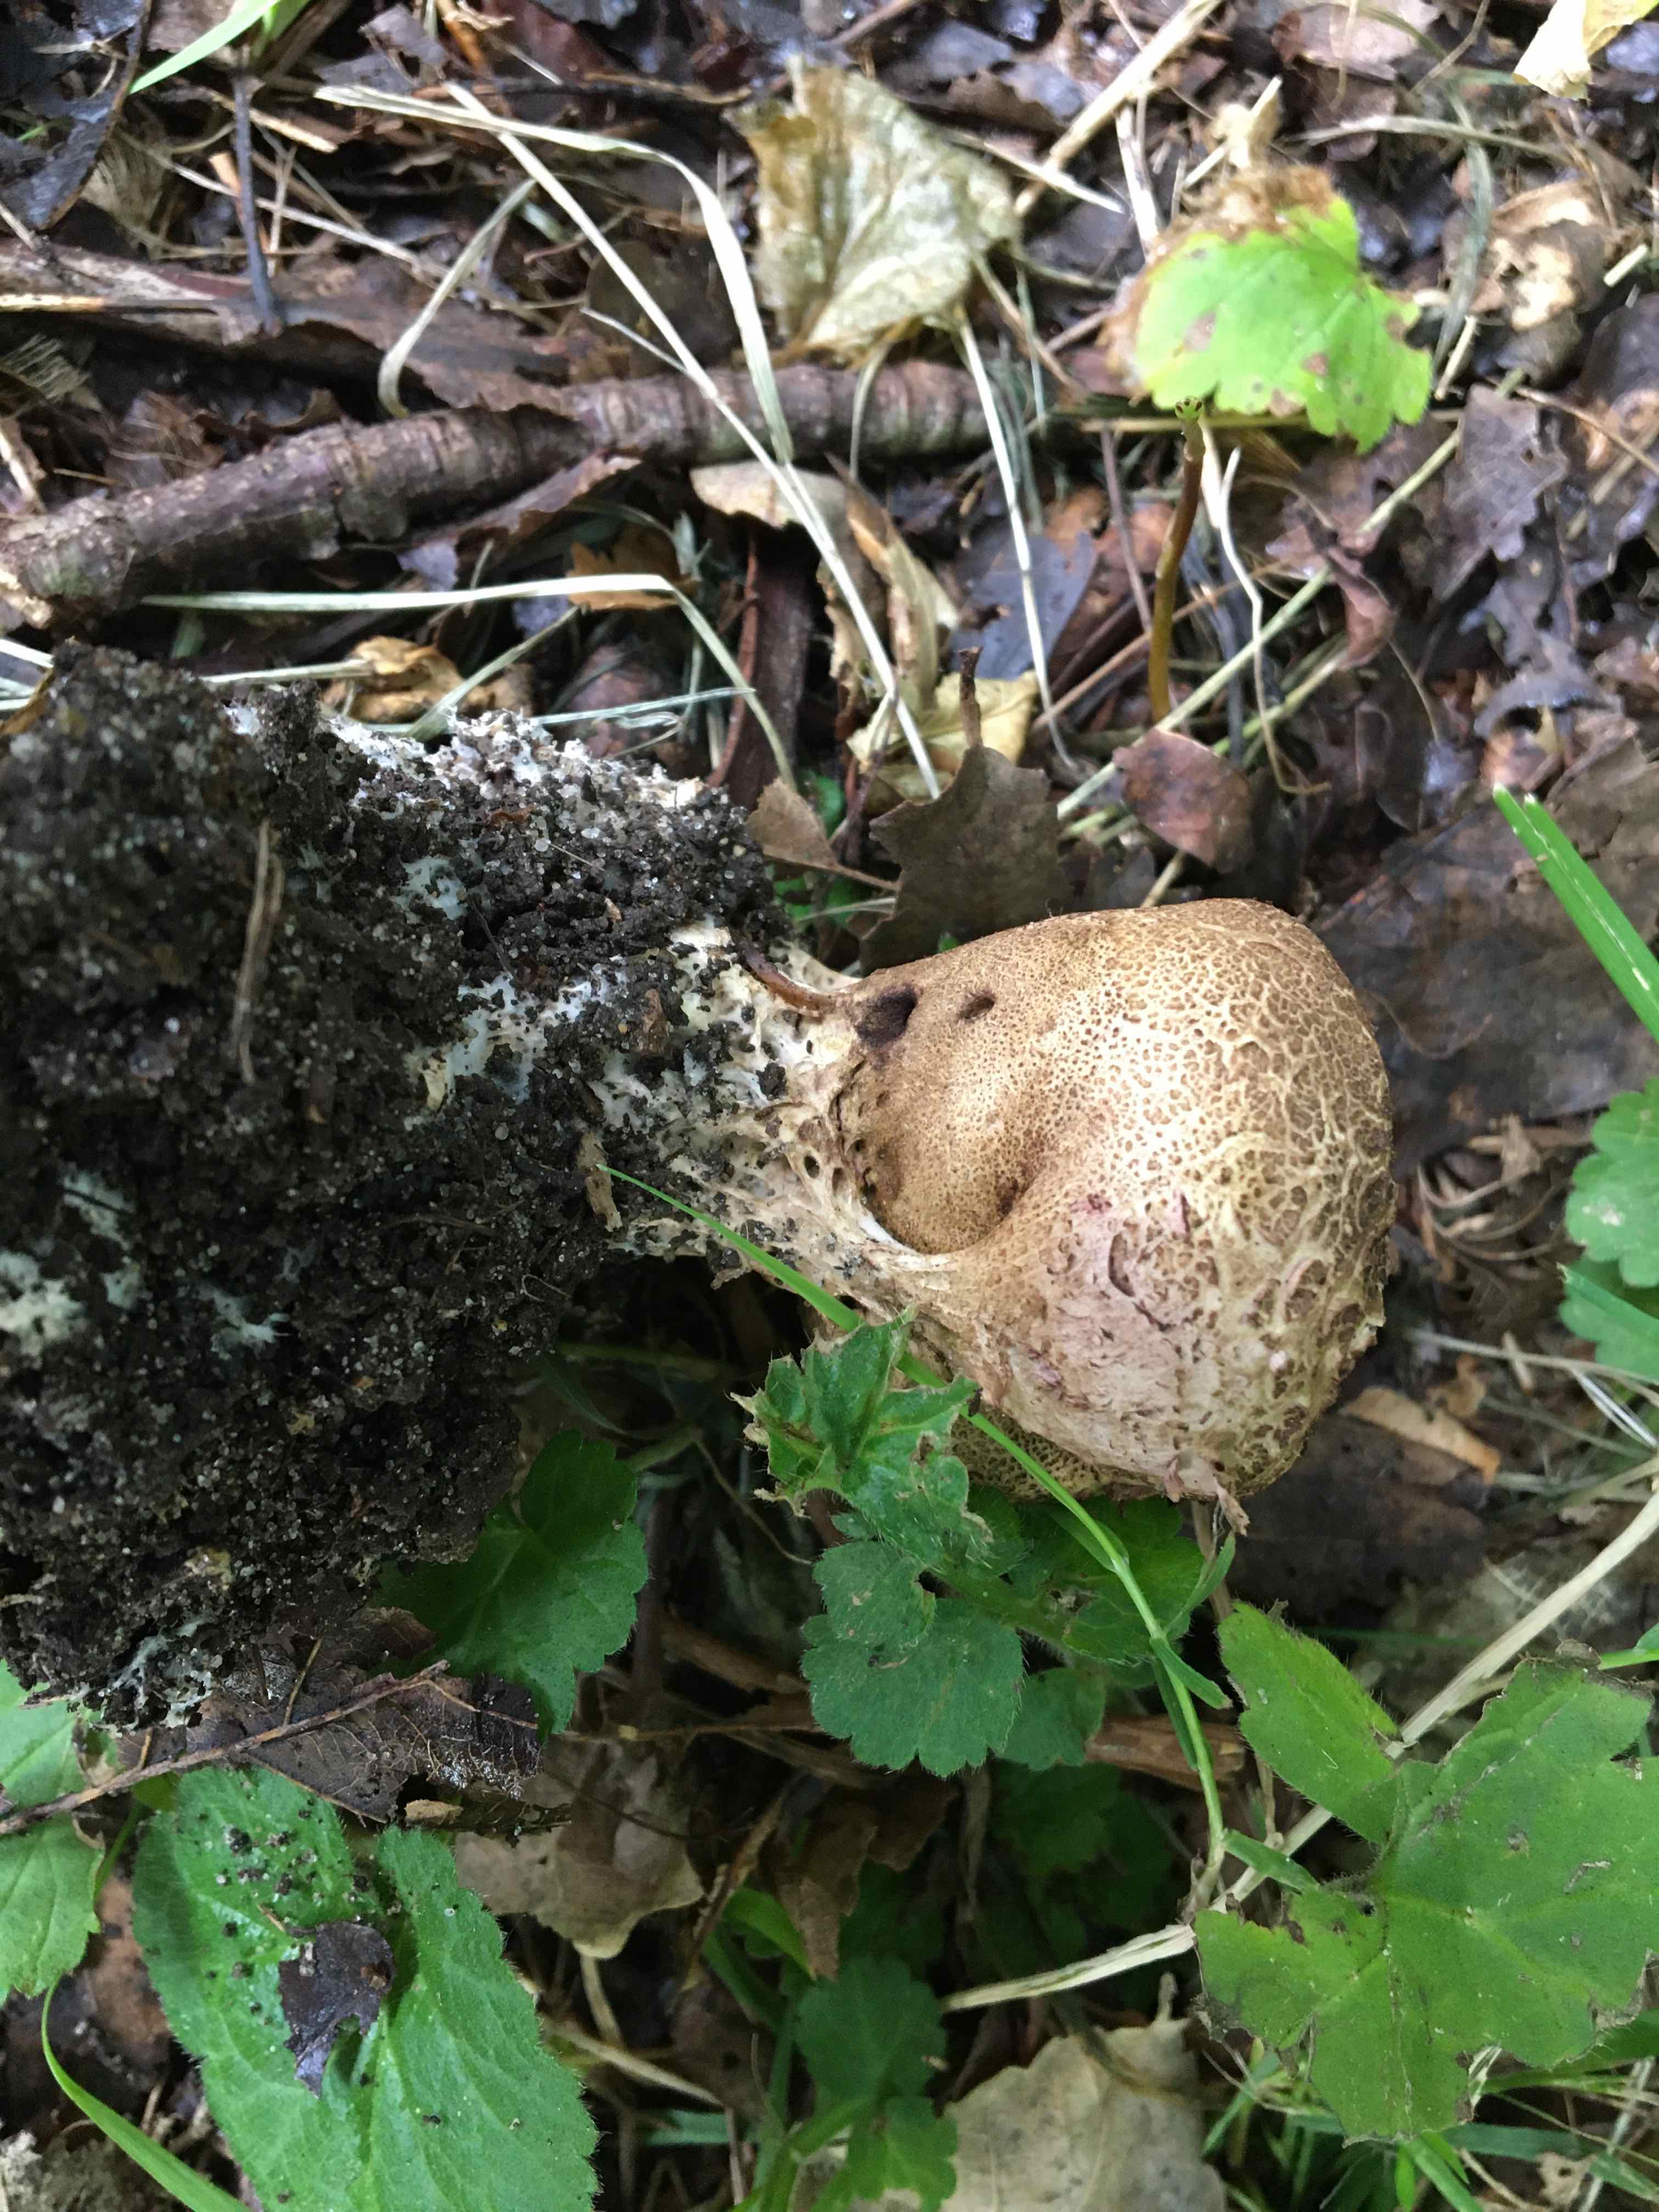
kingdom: Fungi
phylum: Basidiomycota
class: Agaricomycetes
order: Boletales
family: Sclerodermataceae
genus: Scleroderma
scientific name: Scleroderma verrucosum
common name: stilket bruskbold
